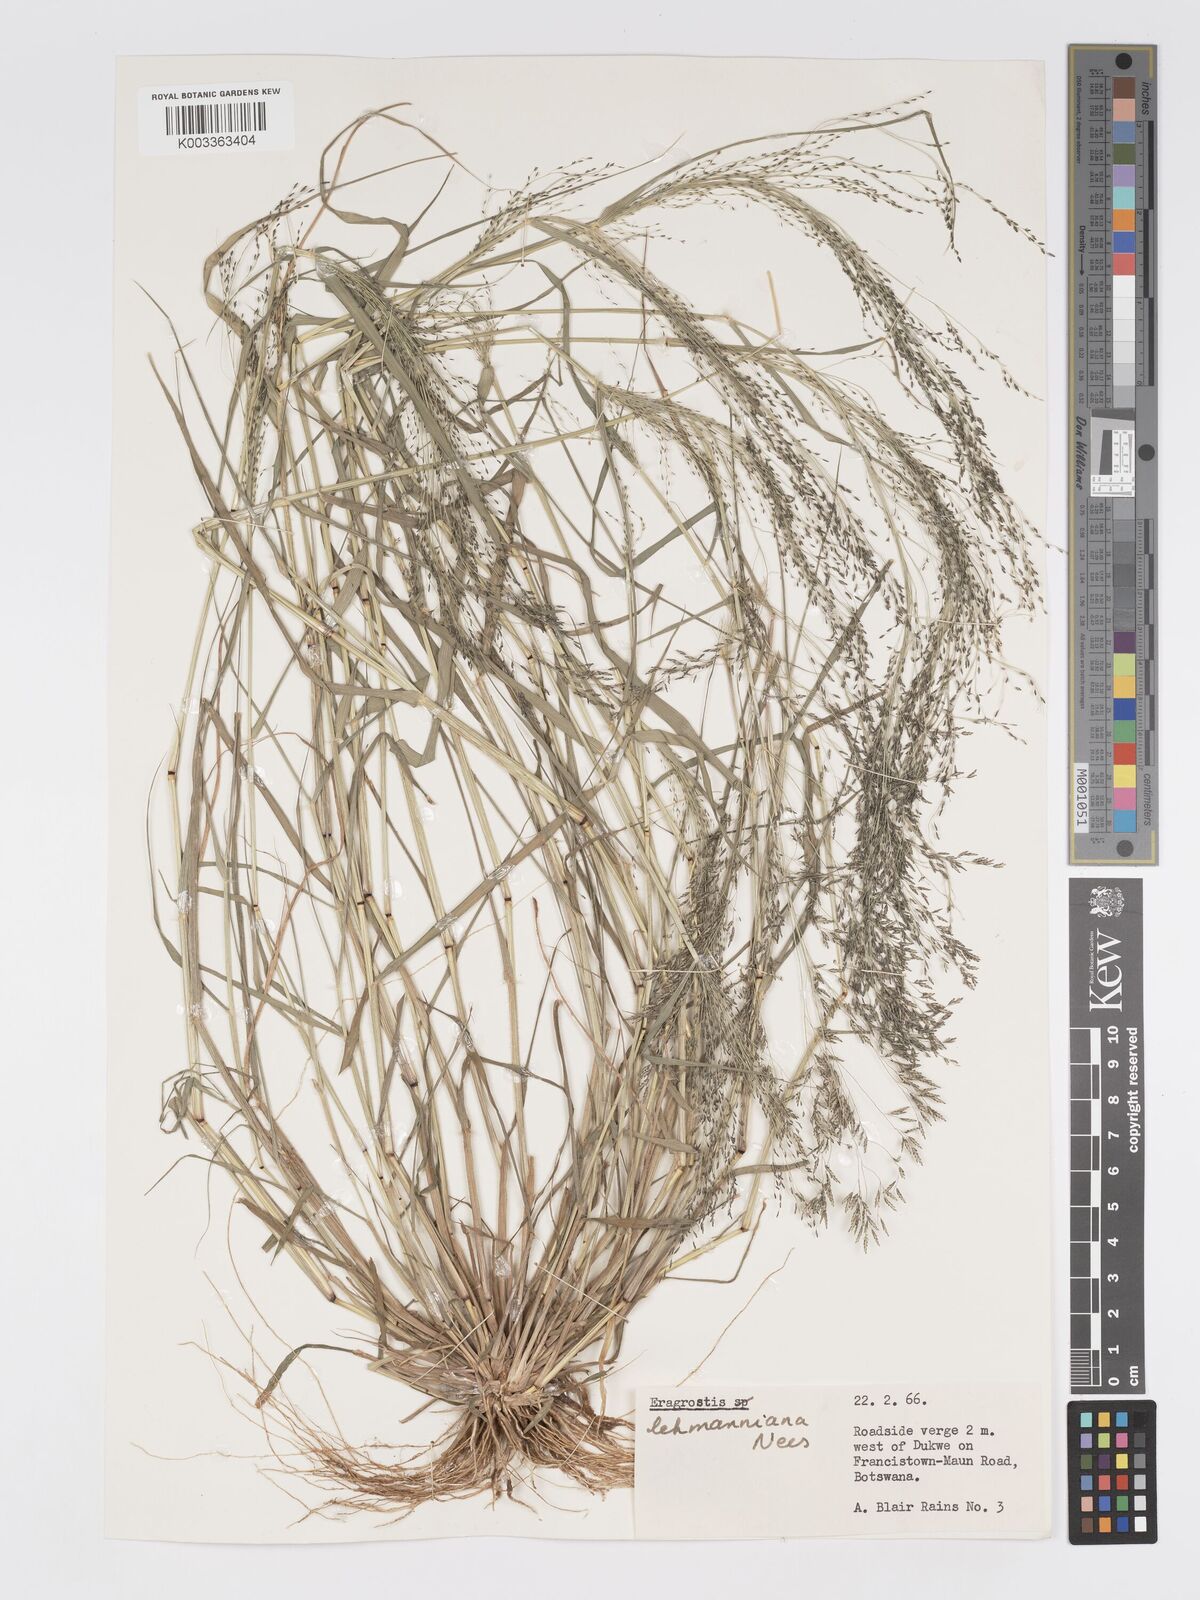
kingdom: Plantae
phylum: Tracheophyta
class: Liliopsida
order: Poales
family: Poaceae
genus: Eragrostis
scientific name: Eragrostis lehmanniana
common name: Lehmann lovegrass
